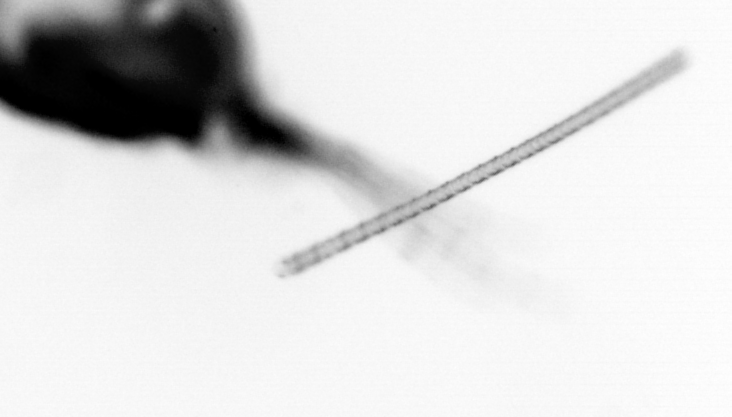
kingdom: Chromista
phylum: Ochrophyta
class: Bacillariophyceae
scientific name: Bacillariophyceae
